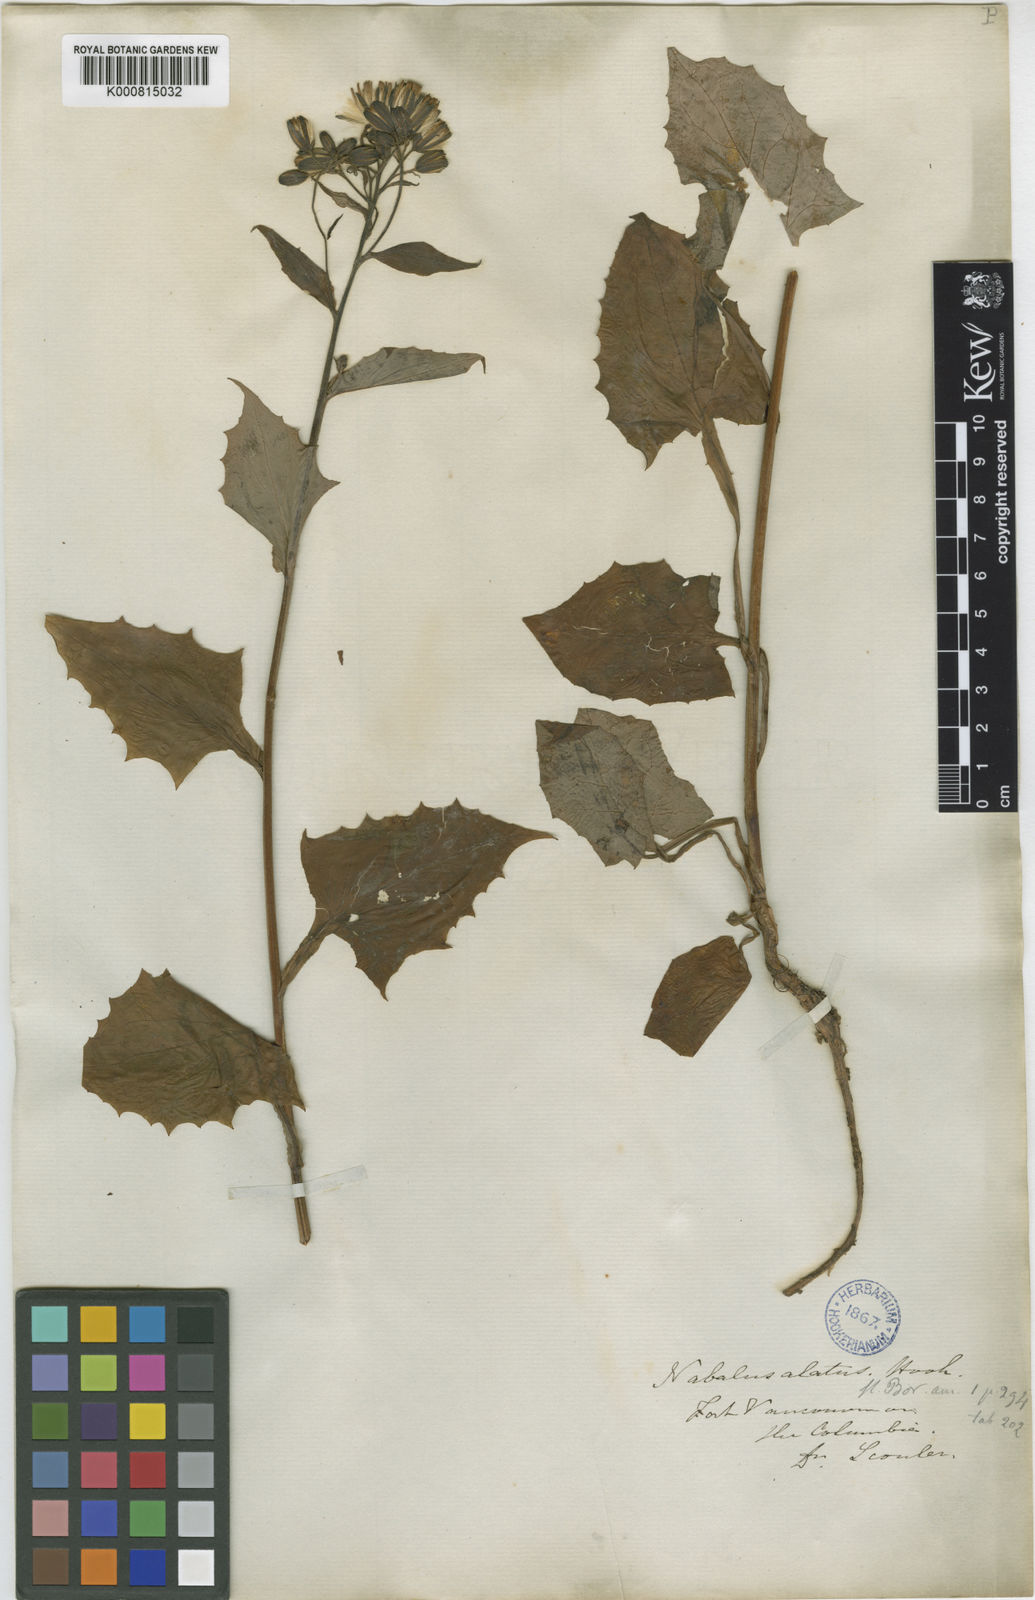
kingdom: Plantae
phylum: Tracheophyta
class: Magnoliopsida
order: Asterales
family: Asteraceae
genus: Nabalus
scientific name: Nabalus hastatus
